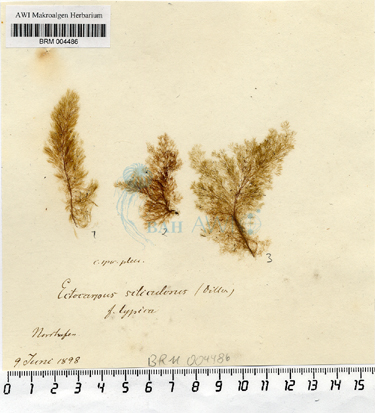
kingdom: Chromista
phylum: Ochrophyta
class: Phaeophyceae
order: Ectocarpales
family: Ectocarpaceae
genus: Ectocarpus
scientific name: Ectocarpus siliculosus
